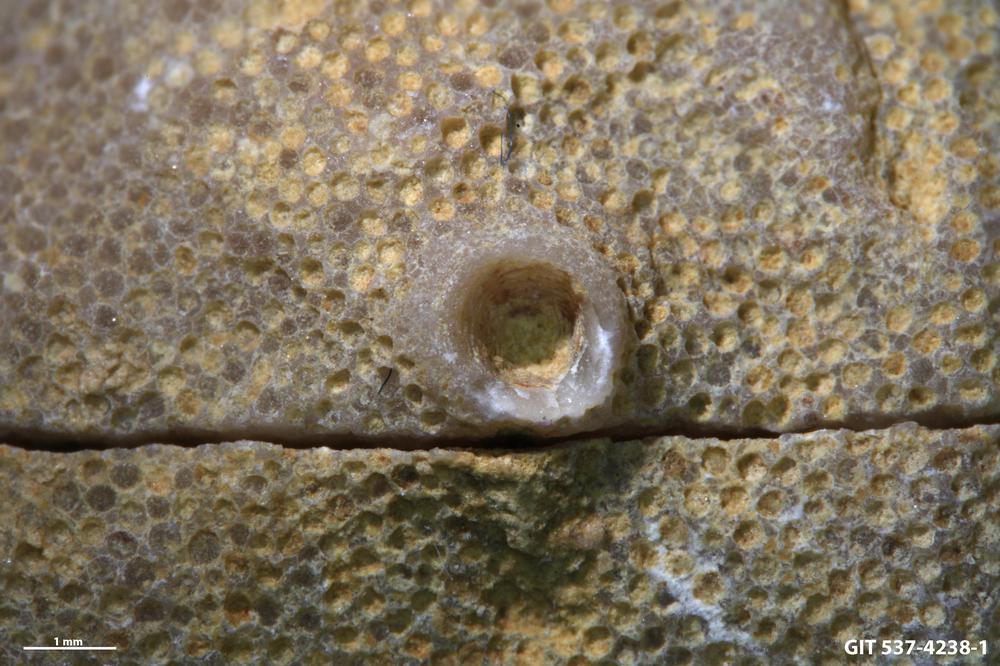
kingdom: Animalia
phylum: Cnidaria
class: Scyphozoa
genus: Climacoconus
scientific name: Climacoconus
